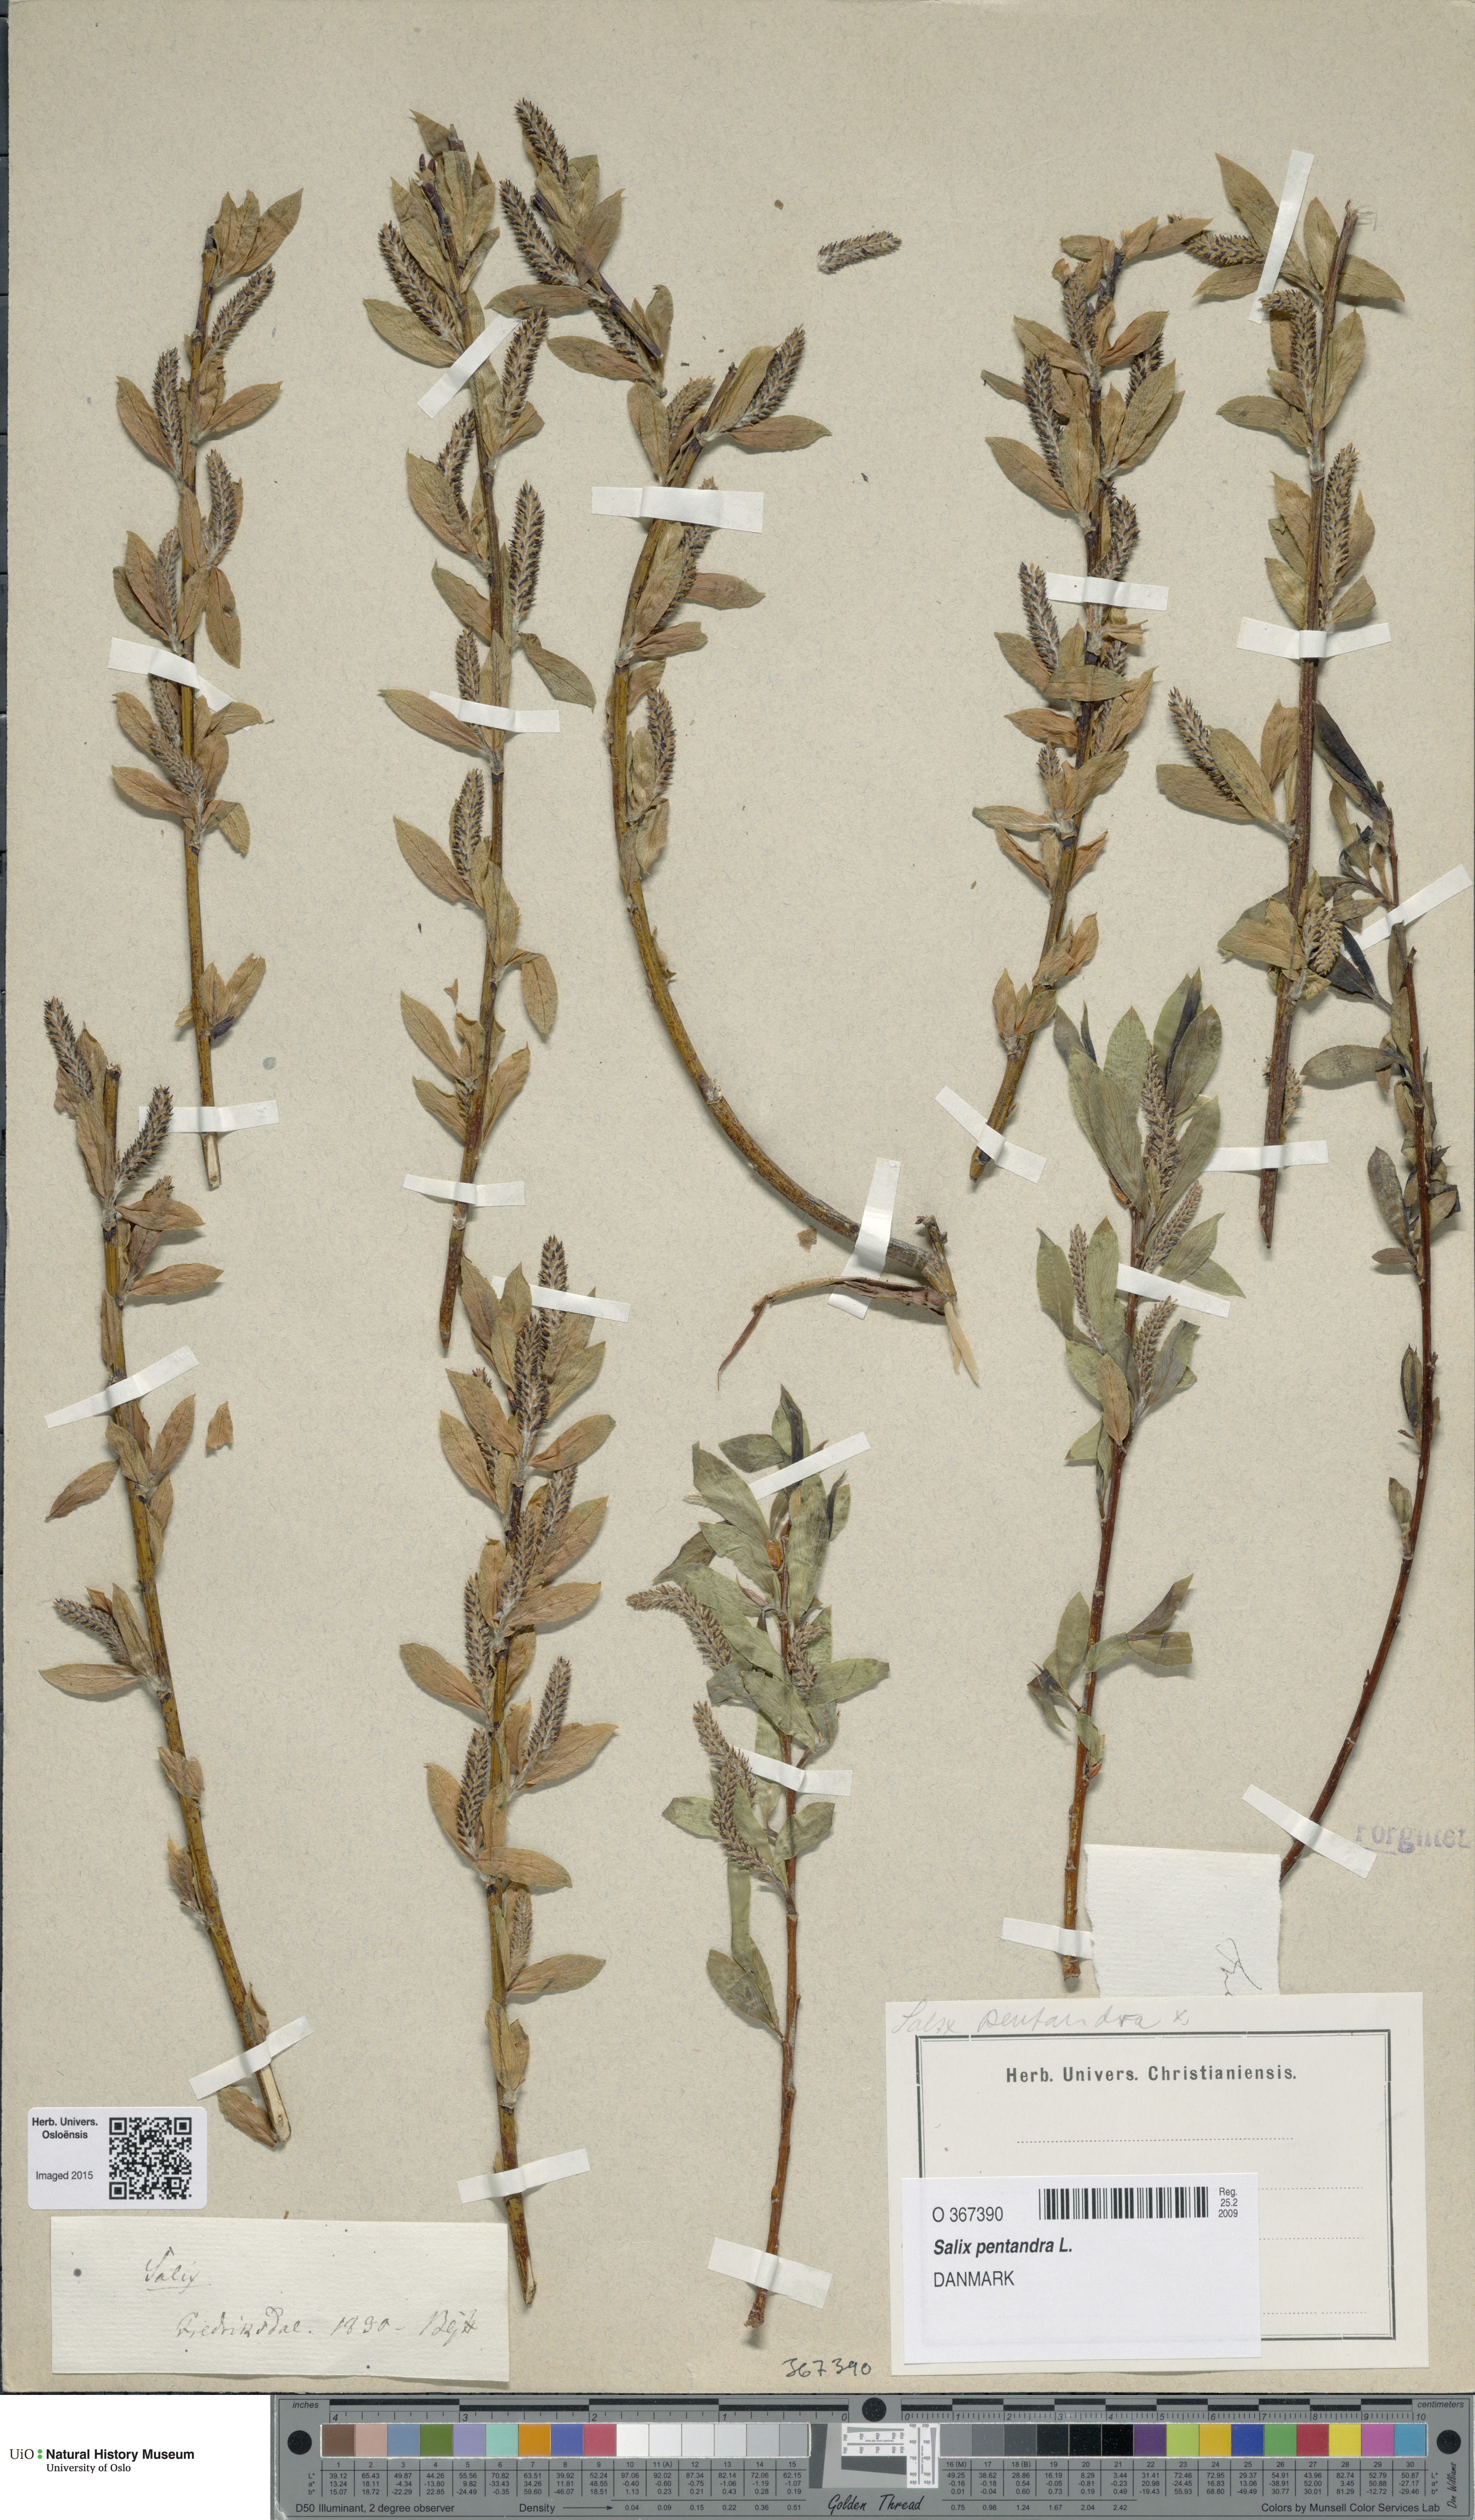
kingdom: Plantae
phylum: Tracheophyta
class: Magnoliopsida
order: Malpighiales
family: Salicaceae
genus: Salix
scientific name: Salix pentandra
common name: Bay willow
